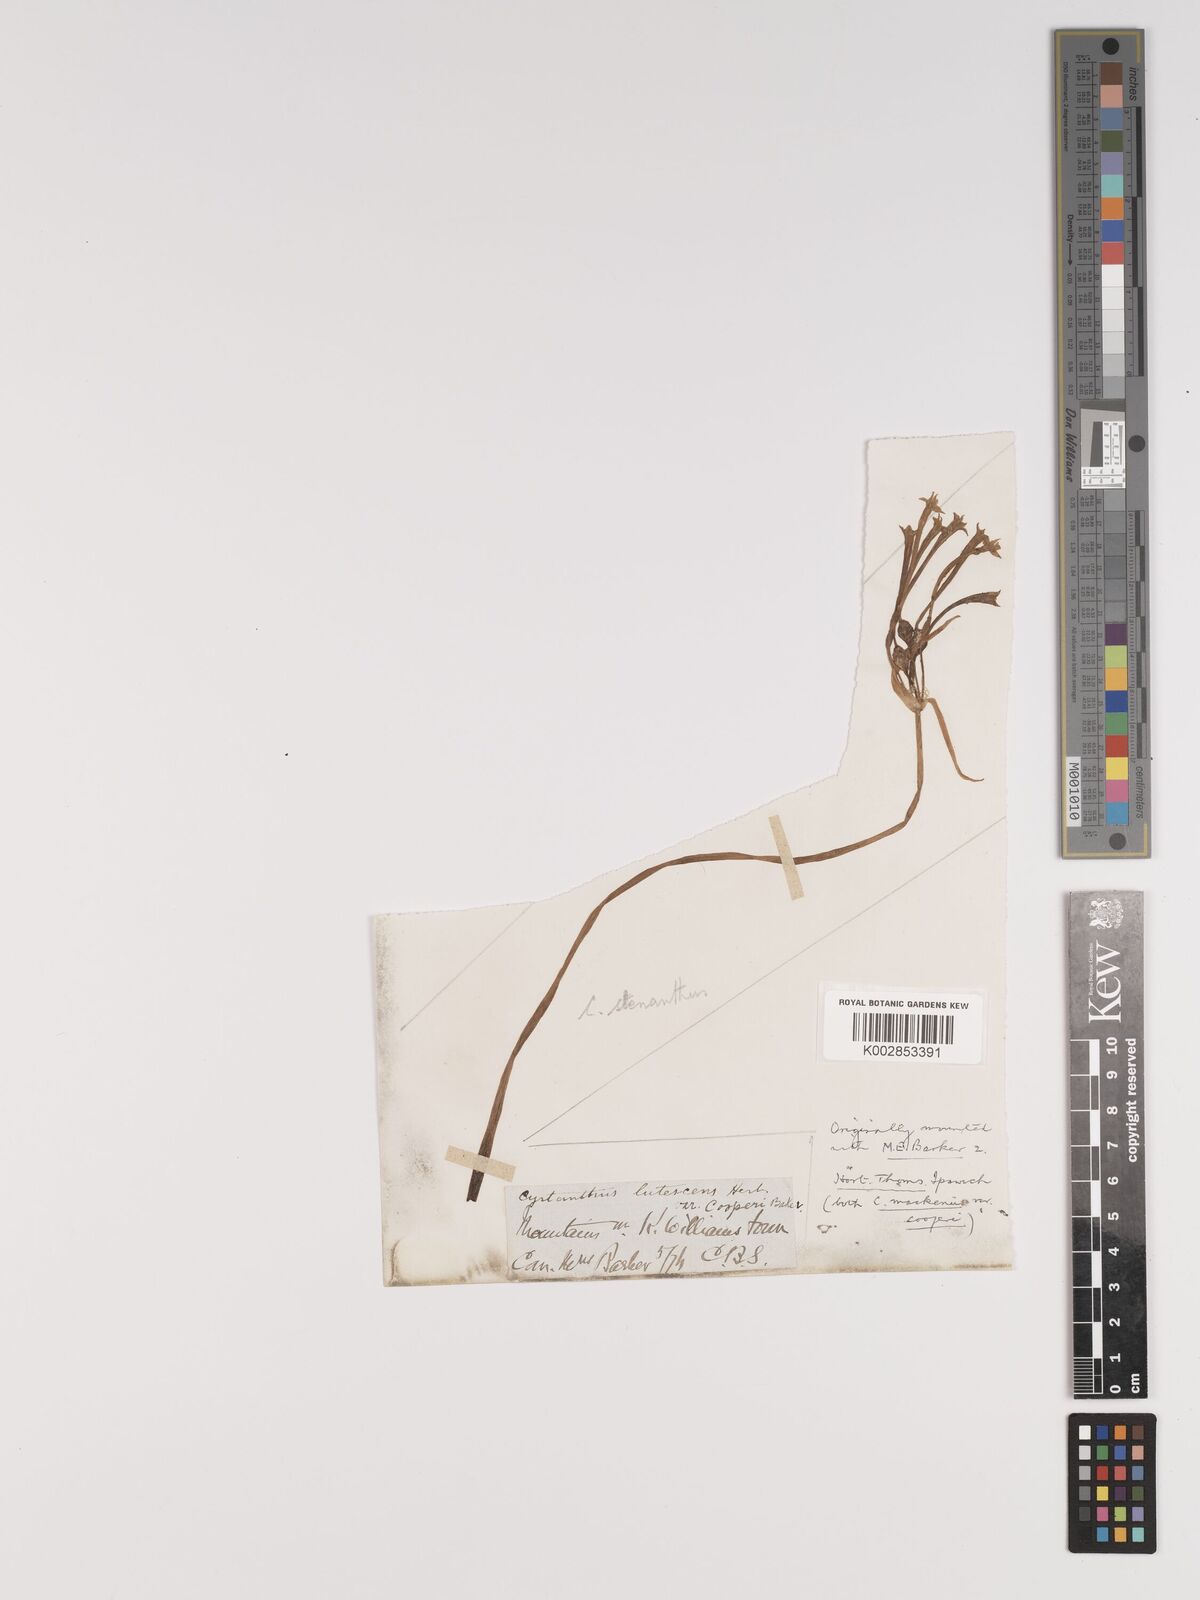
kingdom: Plantae
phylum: Tracheophyta
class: Liliopsida
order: Asparagales
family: Amaryllidaceae
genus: Cyrtanthus
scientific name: Cyrtanthus stenanthus
